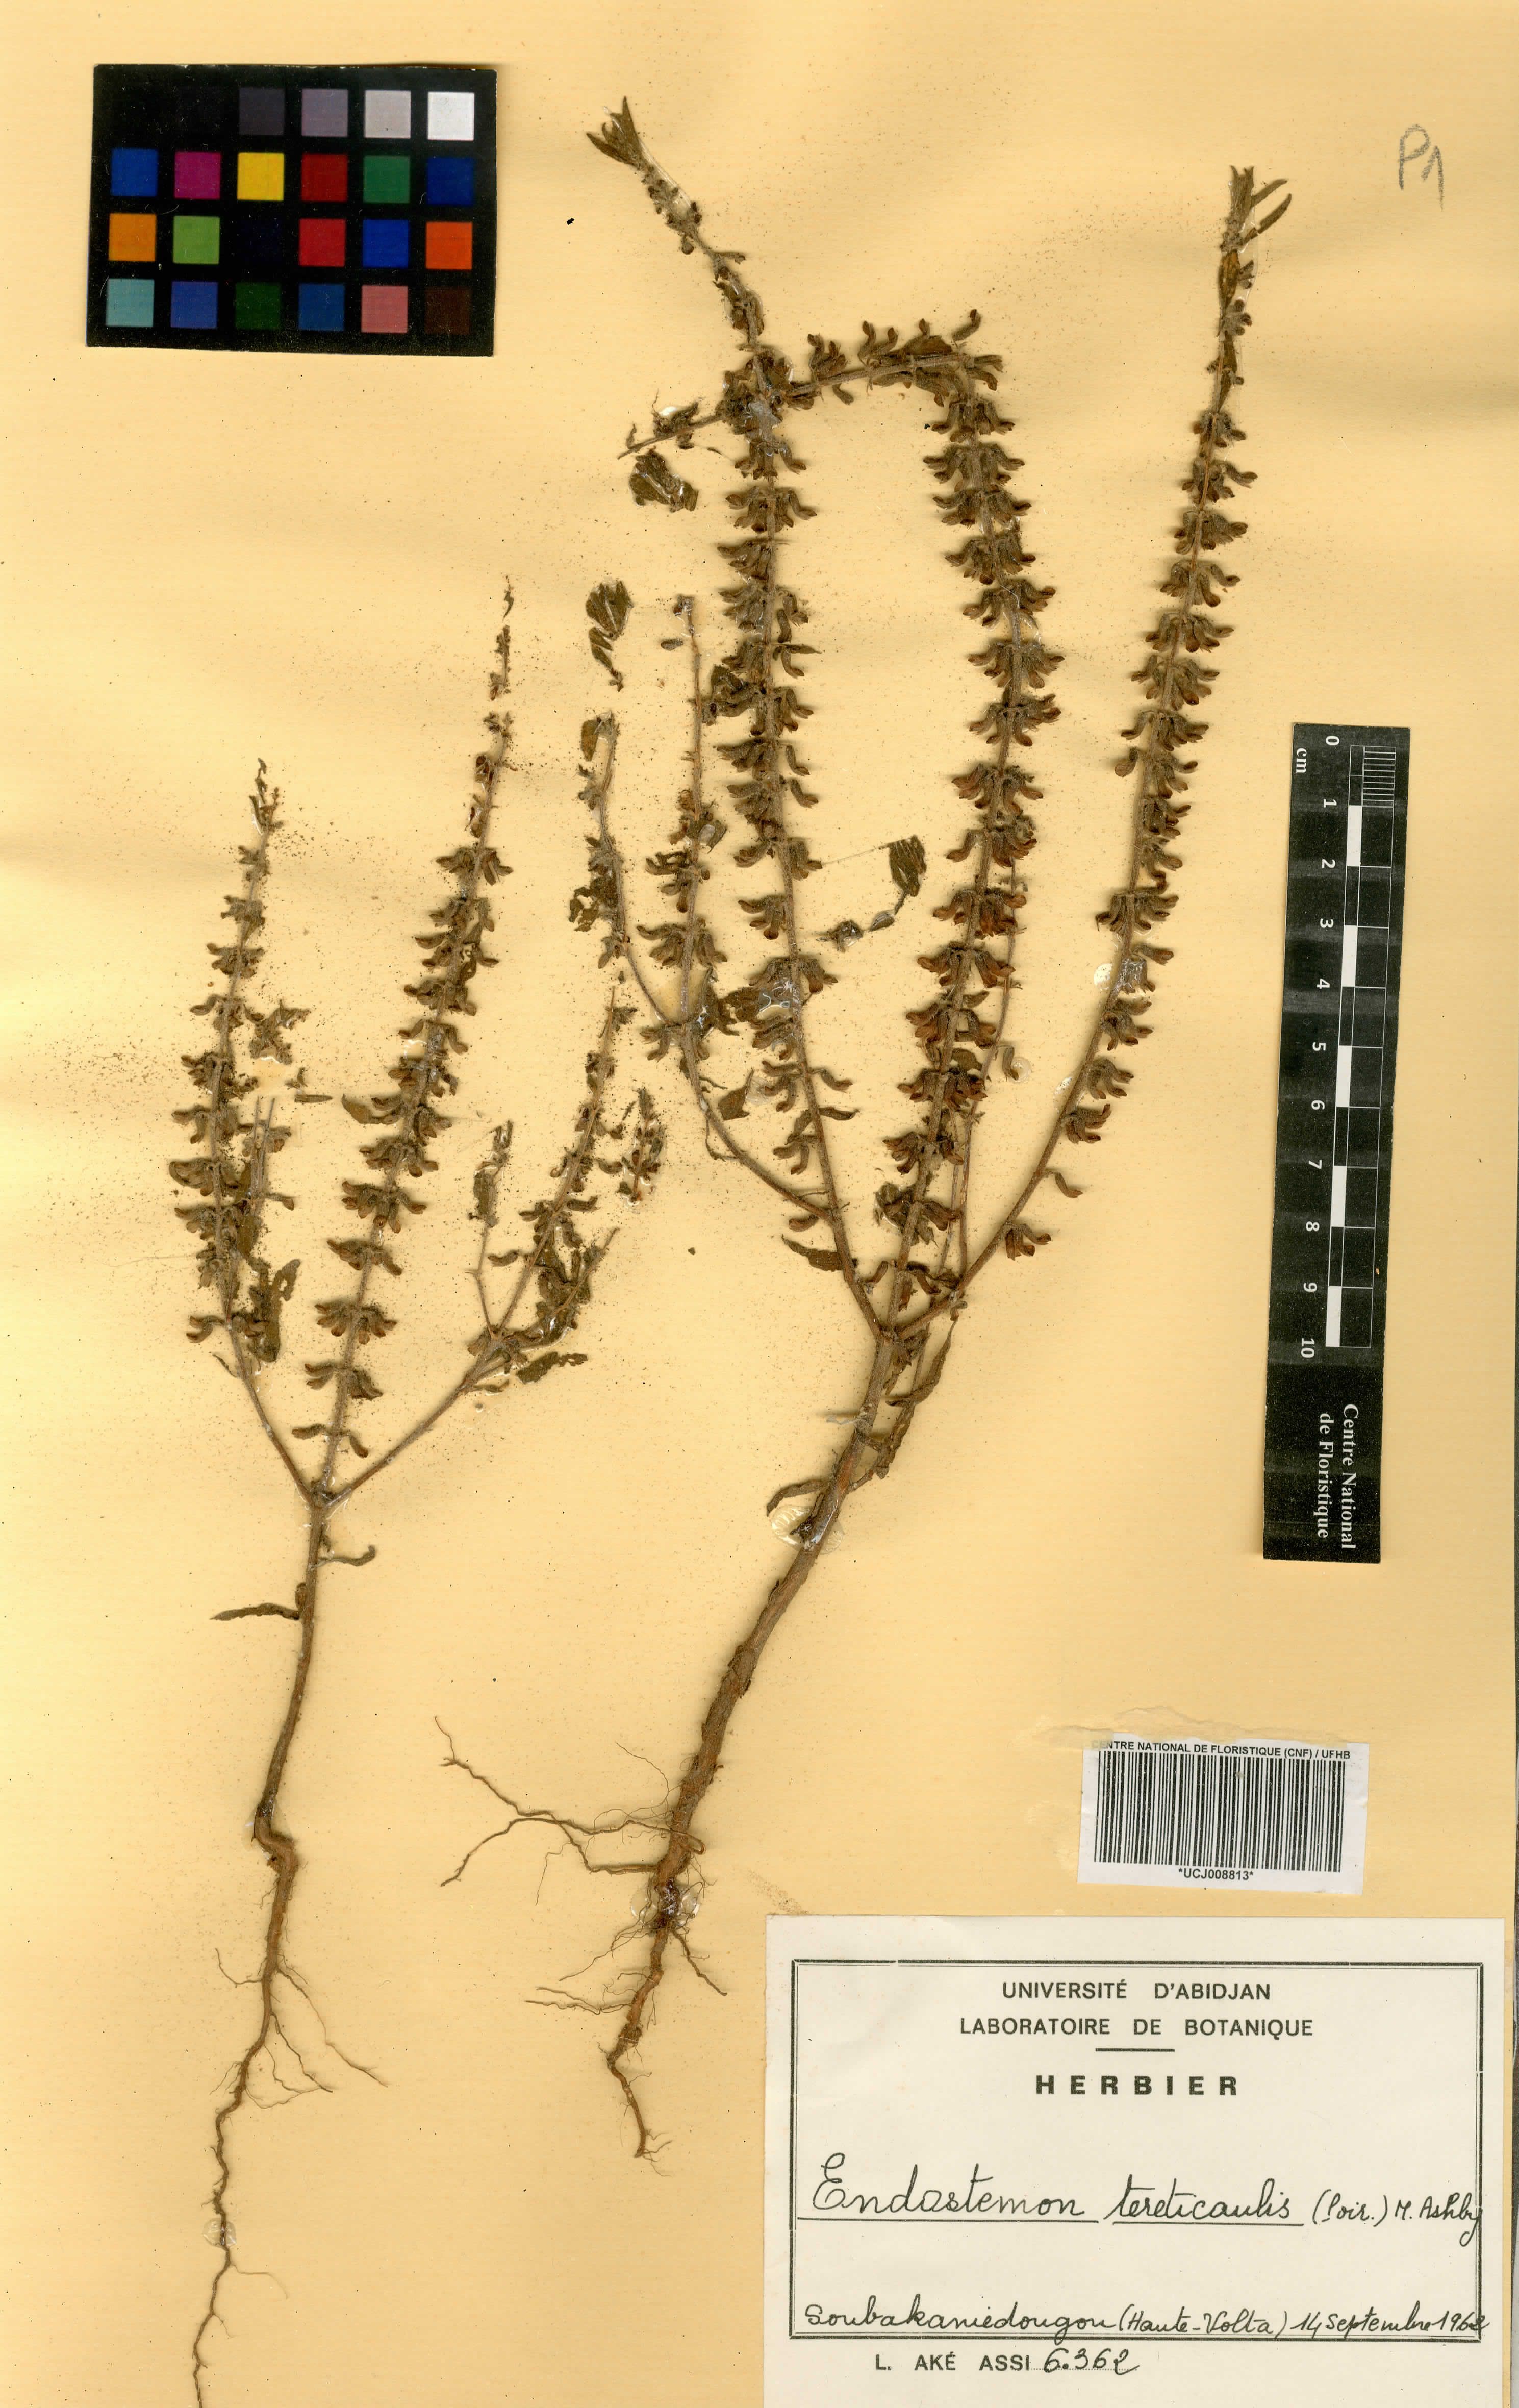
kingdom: Plantae
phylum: Tracheophyta
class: Magnoliopsida
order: Lamiales
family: Lamiaceae
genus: Endostemon
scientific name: Endostemon tereticaulis
